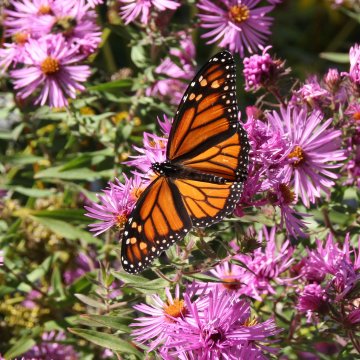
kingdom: Animalia
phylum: Arthropoda
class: Insecta
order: Lepidoptera
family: Nymphalidae
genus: Danaus
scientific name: Danaus plexippus
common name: Monarch
